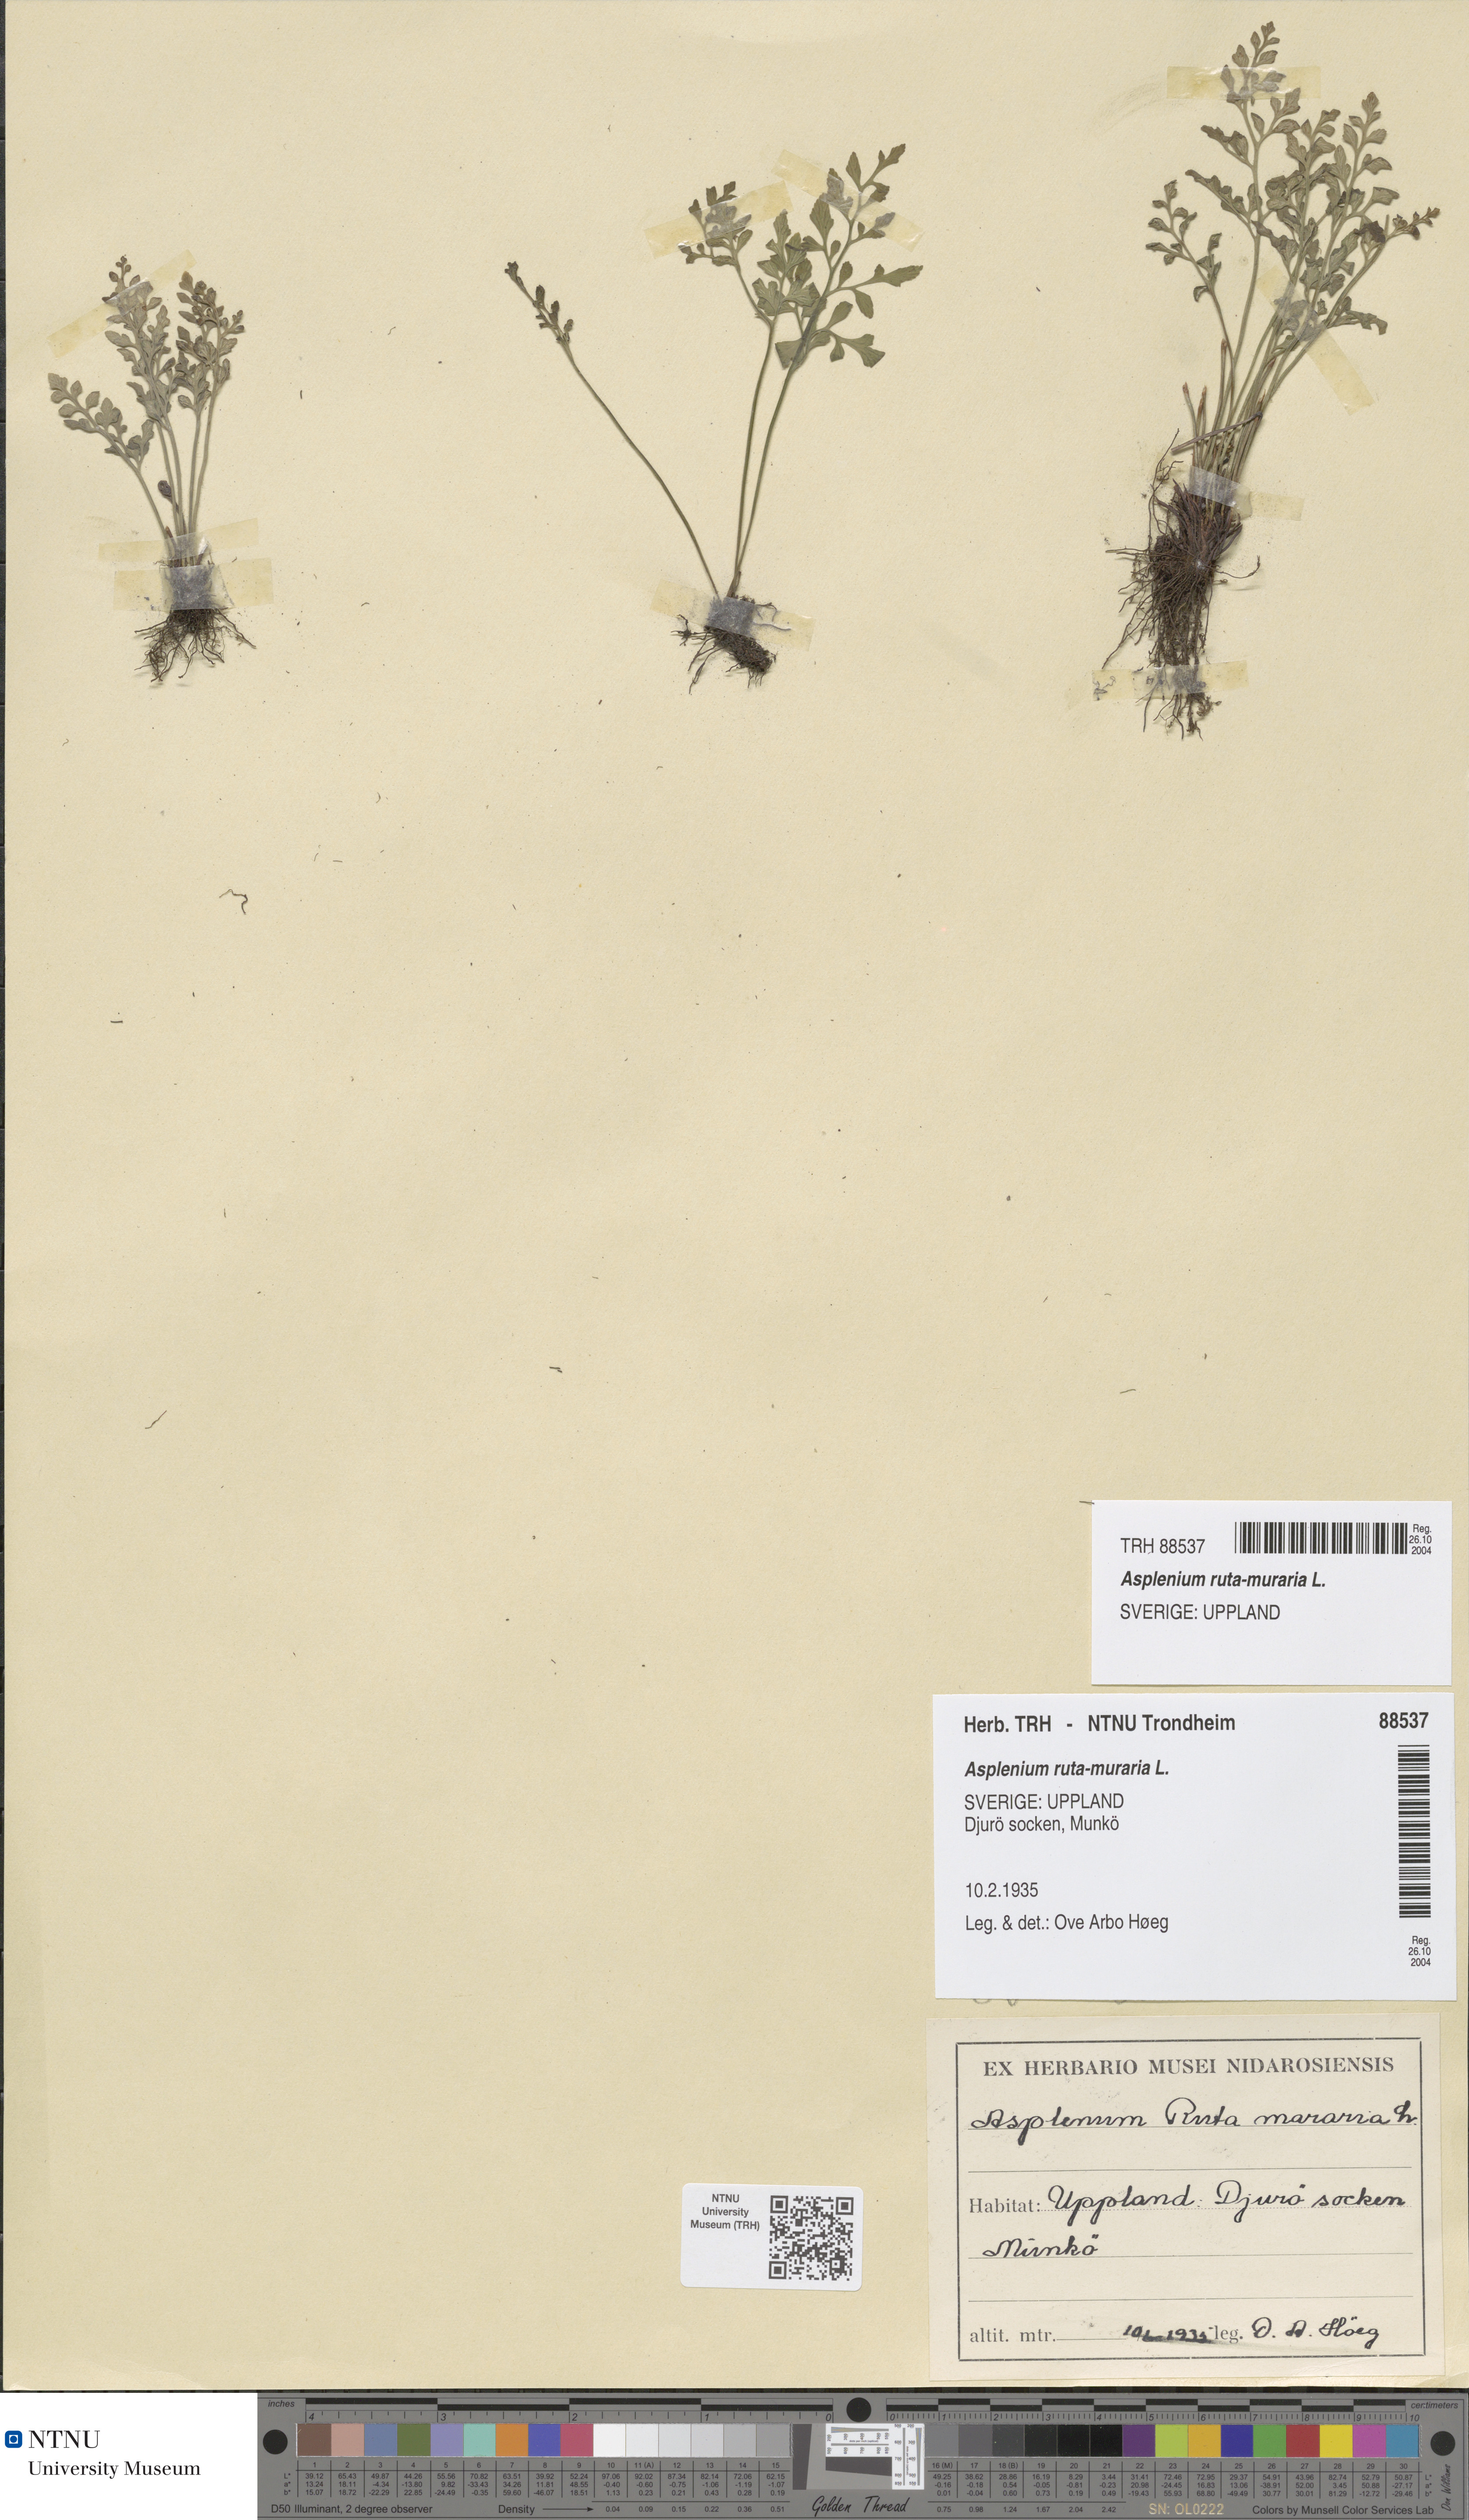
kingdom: Plantae
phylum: Tracheophyta
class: Polypodiopsida
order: Polypodiales
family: Aspleniaceae
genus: Asplenium
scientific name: Asplenium ruta-muraria
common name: Wall-rue
